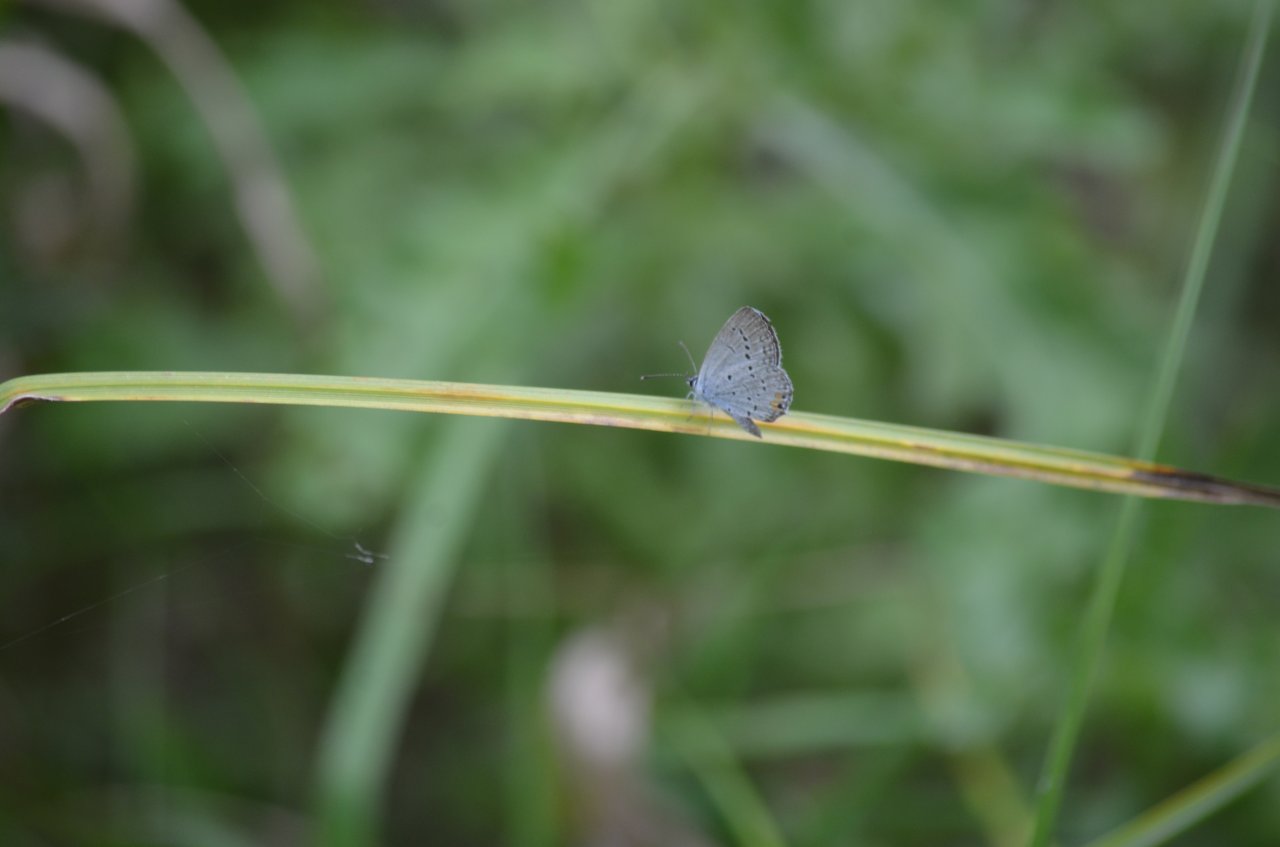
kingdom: Animalia
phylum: Arthropoda
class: Insecta
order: Lepidoptera
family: Lycaenidae
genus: Elkalyce
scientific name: Elkalyce comyntas
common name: Eastern Tailed-Blue
